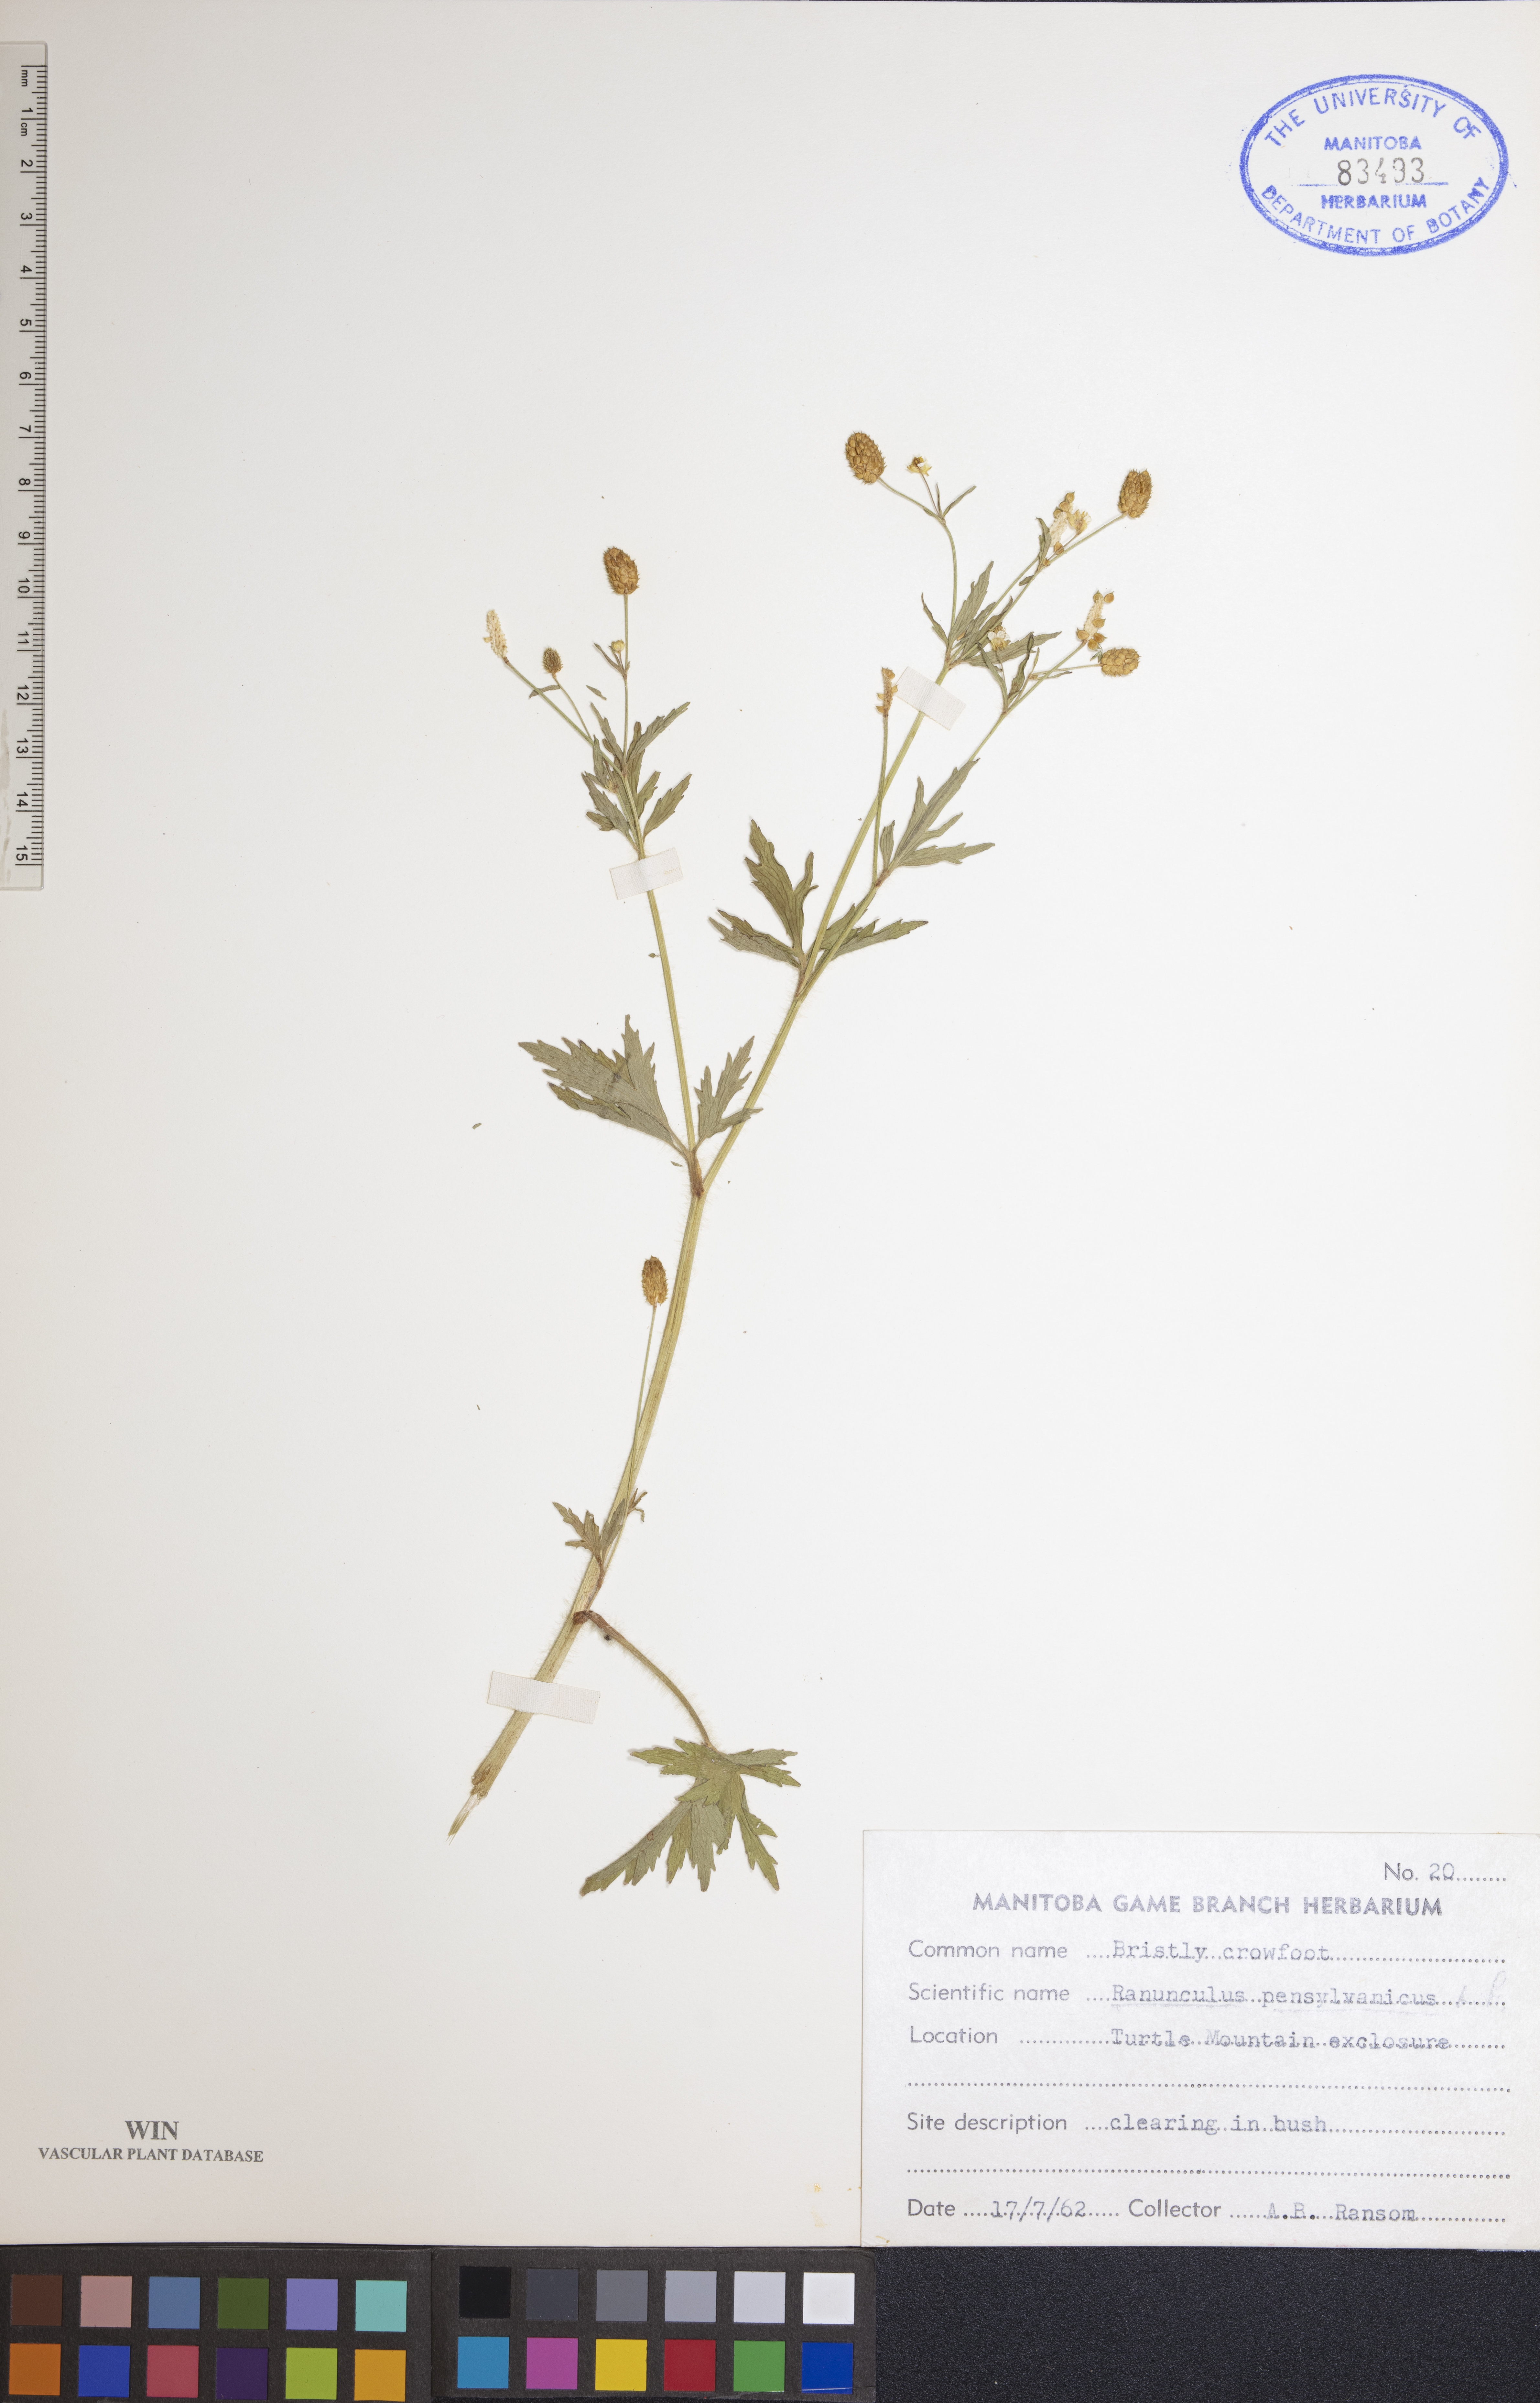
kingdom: Plantae
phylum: Tracheophyta
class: Magnoliopsida
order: Ranunculales
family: Ranunculaceae
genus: Ranunculus
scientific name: Ranunculus pensylvanicus
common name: Bristly buttercup
